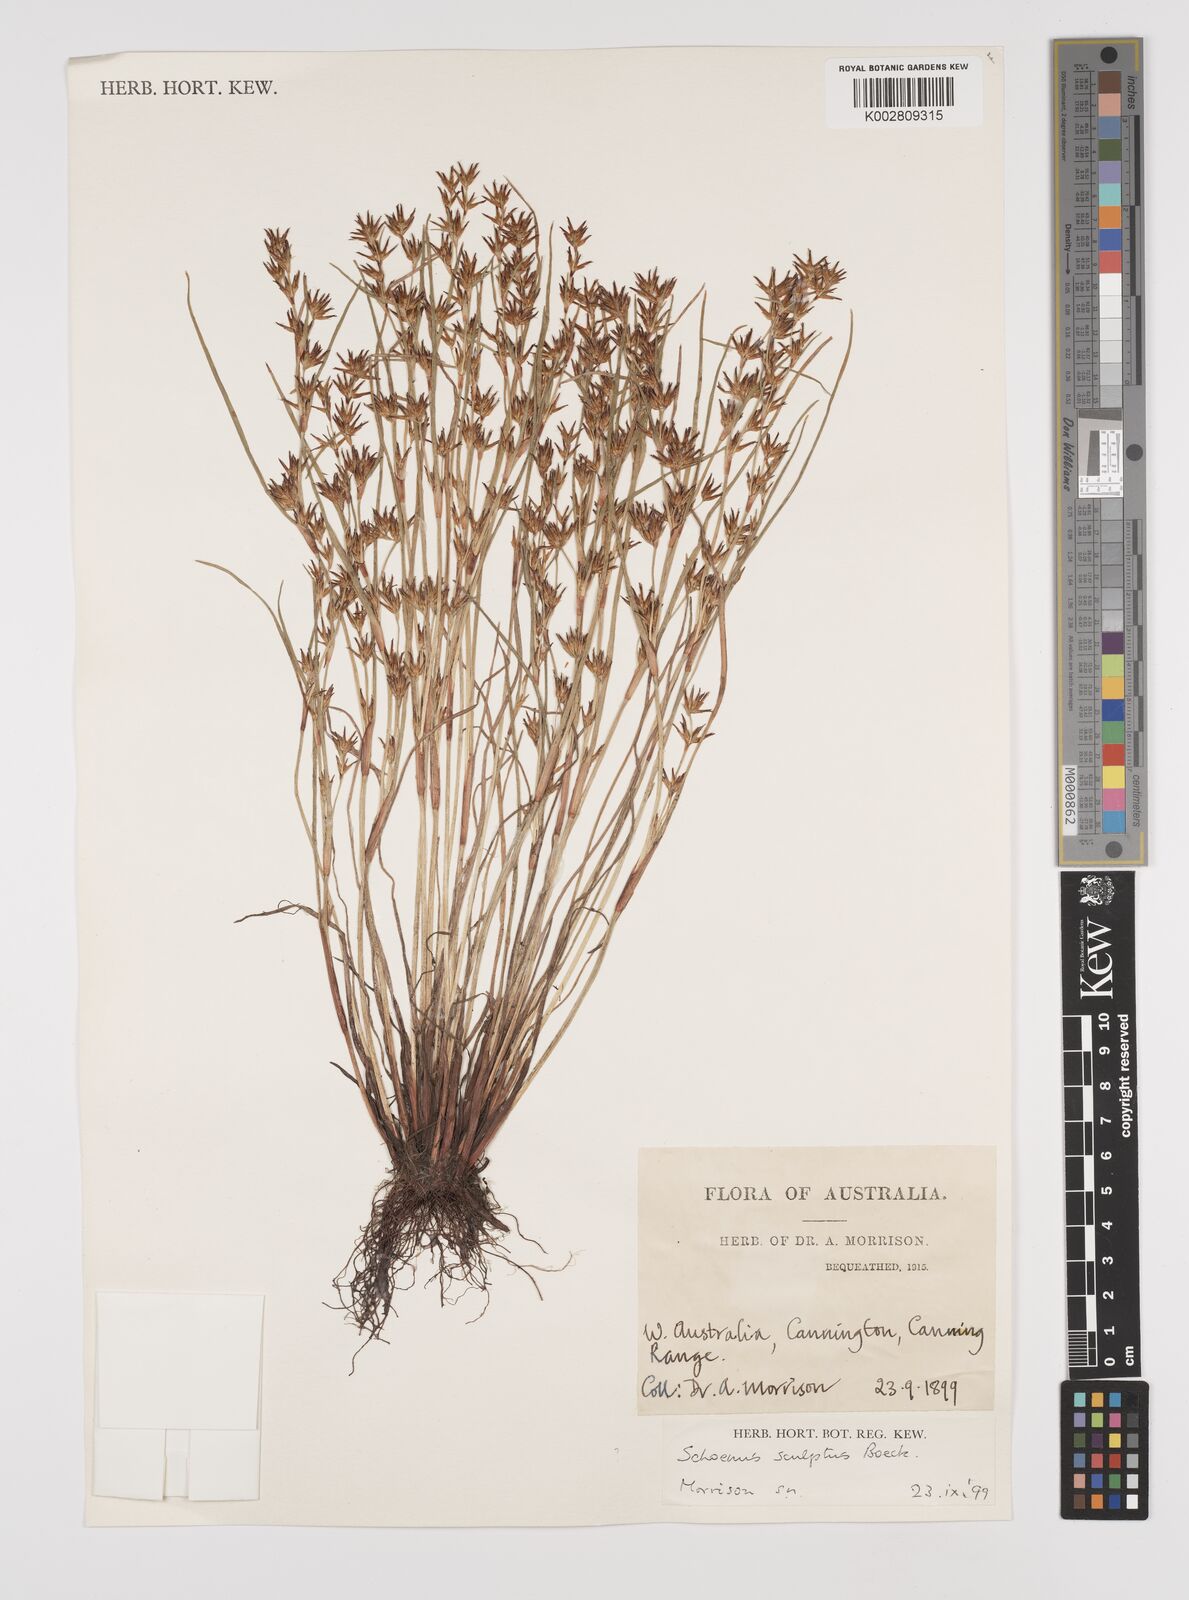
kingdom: Plantae
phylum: Tracheophyta
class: Liliopsida
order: Poales
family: Cyperaceae
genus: Schoenus
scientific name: Schoenus sculptus
